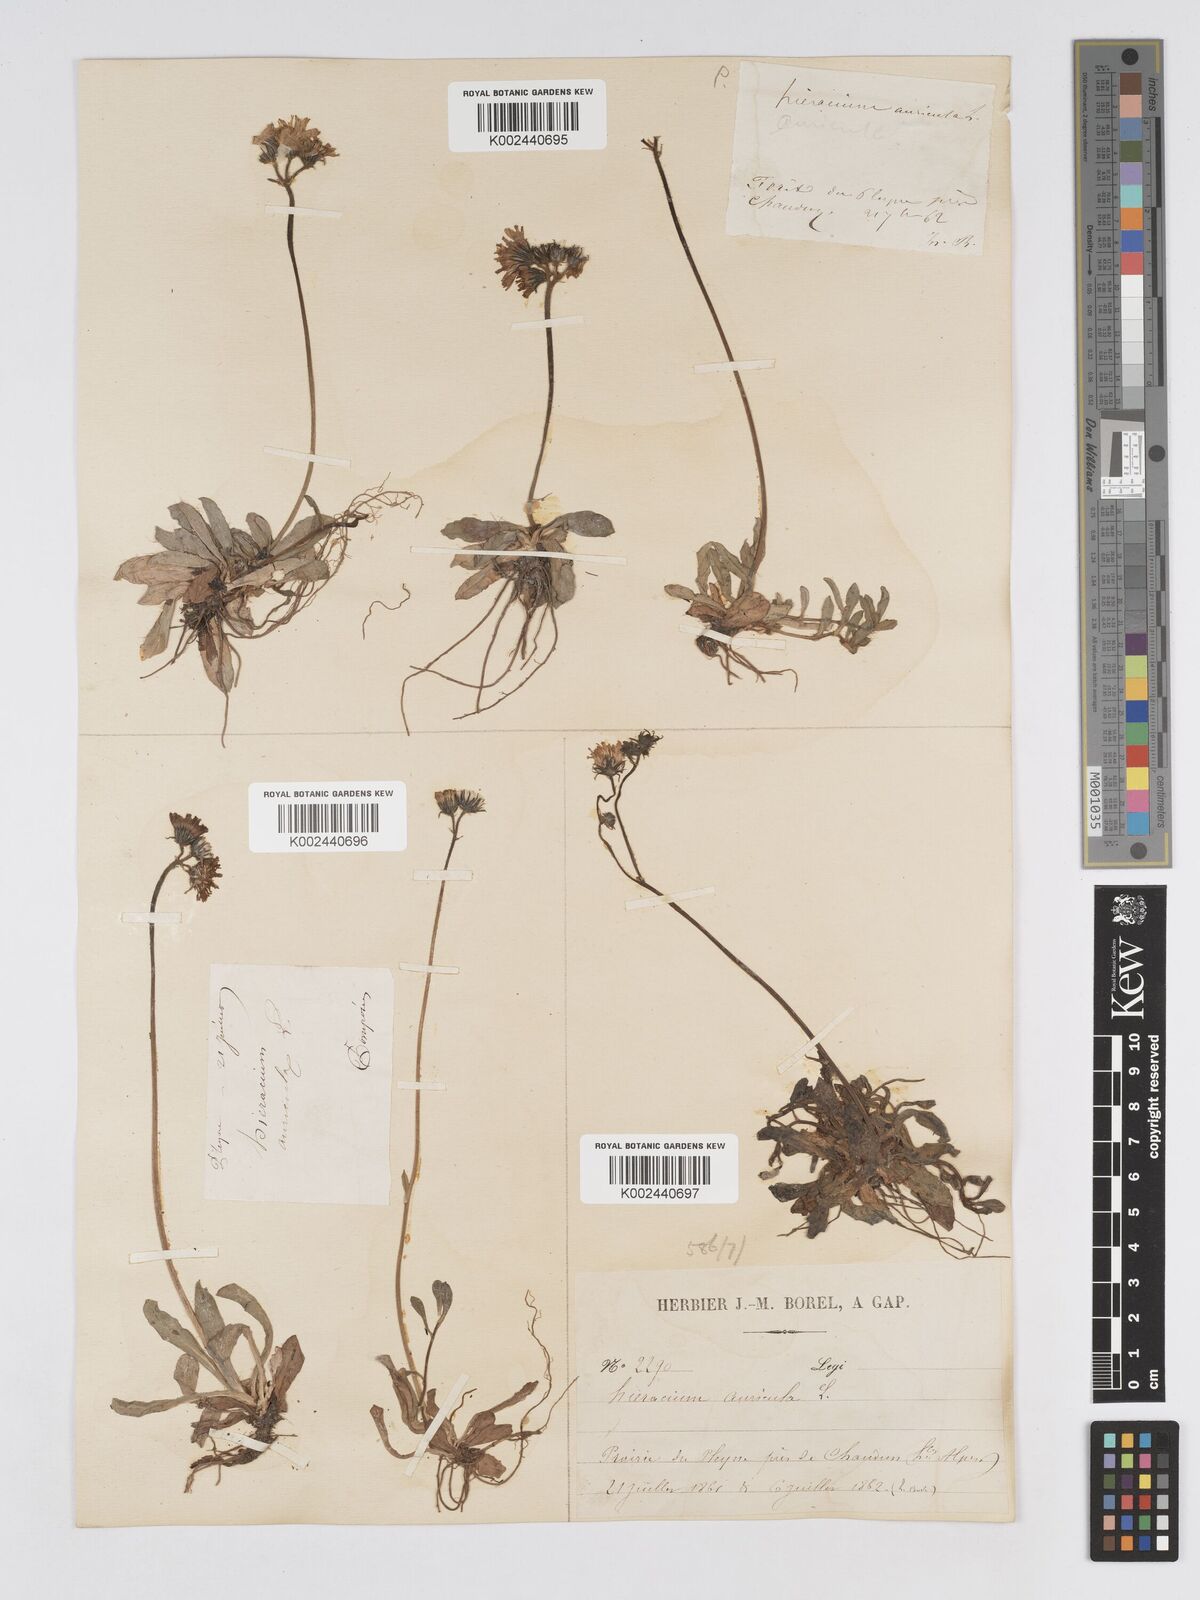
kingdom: Plantae
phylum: Tracheophyta
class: Magnoliopsida
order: Asterales
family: Asteraceae
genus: Pilosella
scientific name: Pilosella floribunda
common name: Glaucous hawkweed
